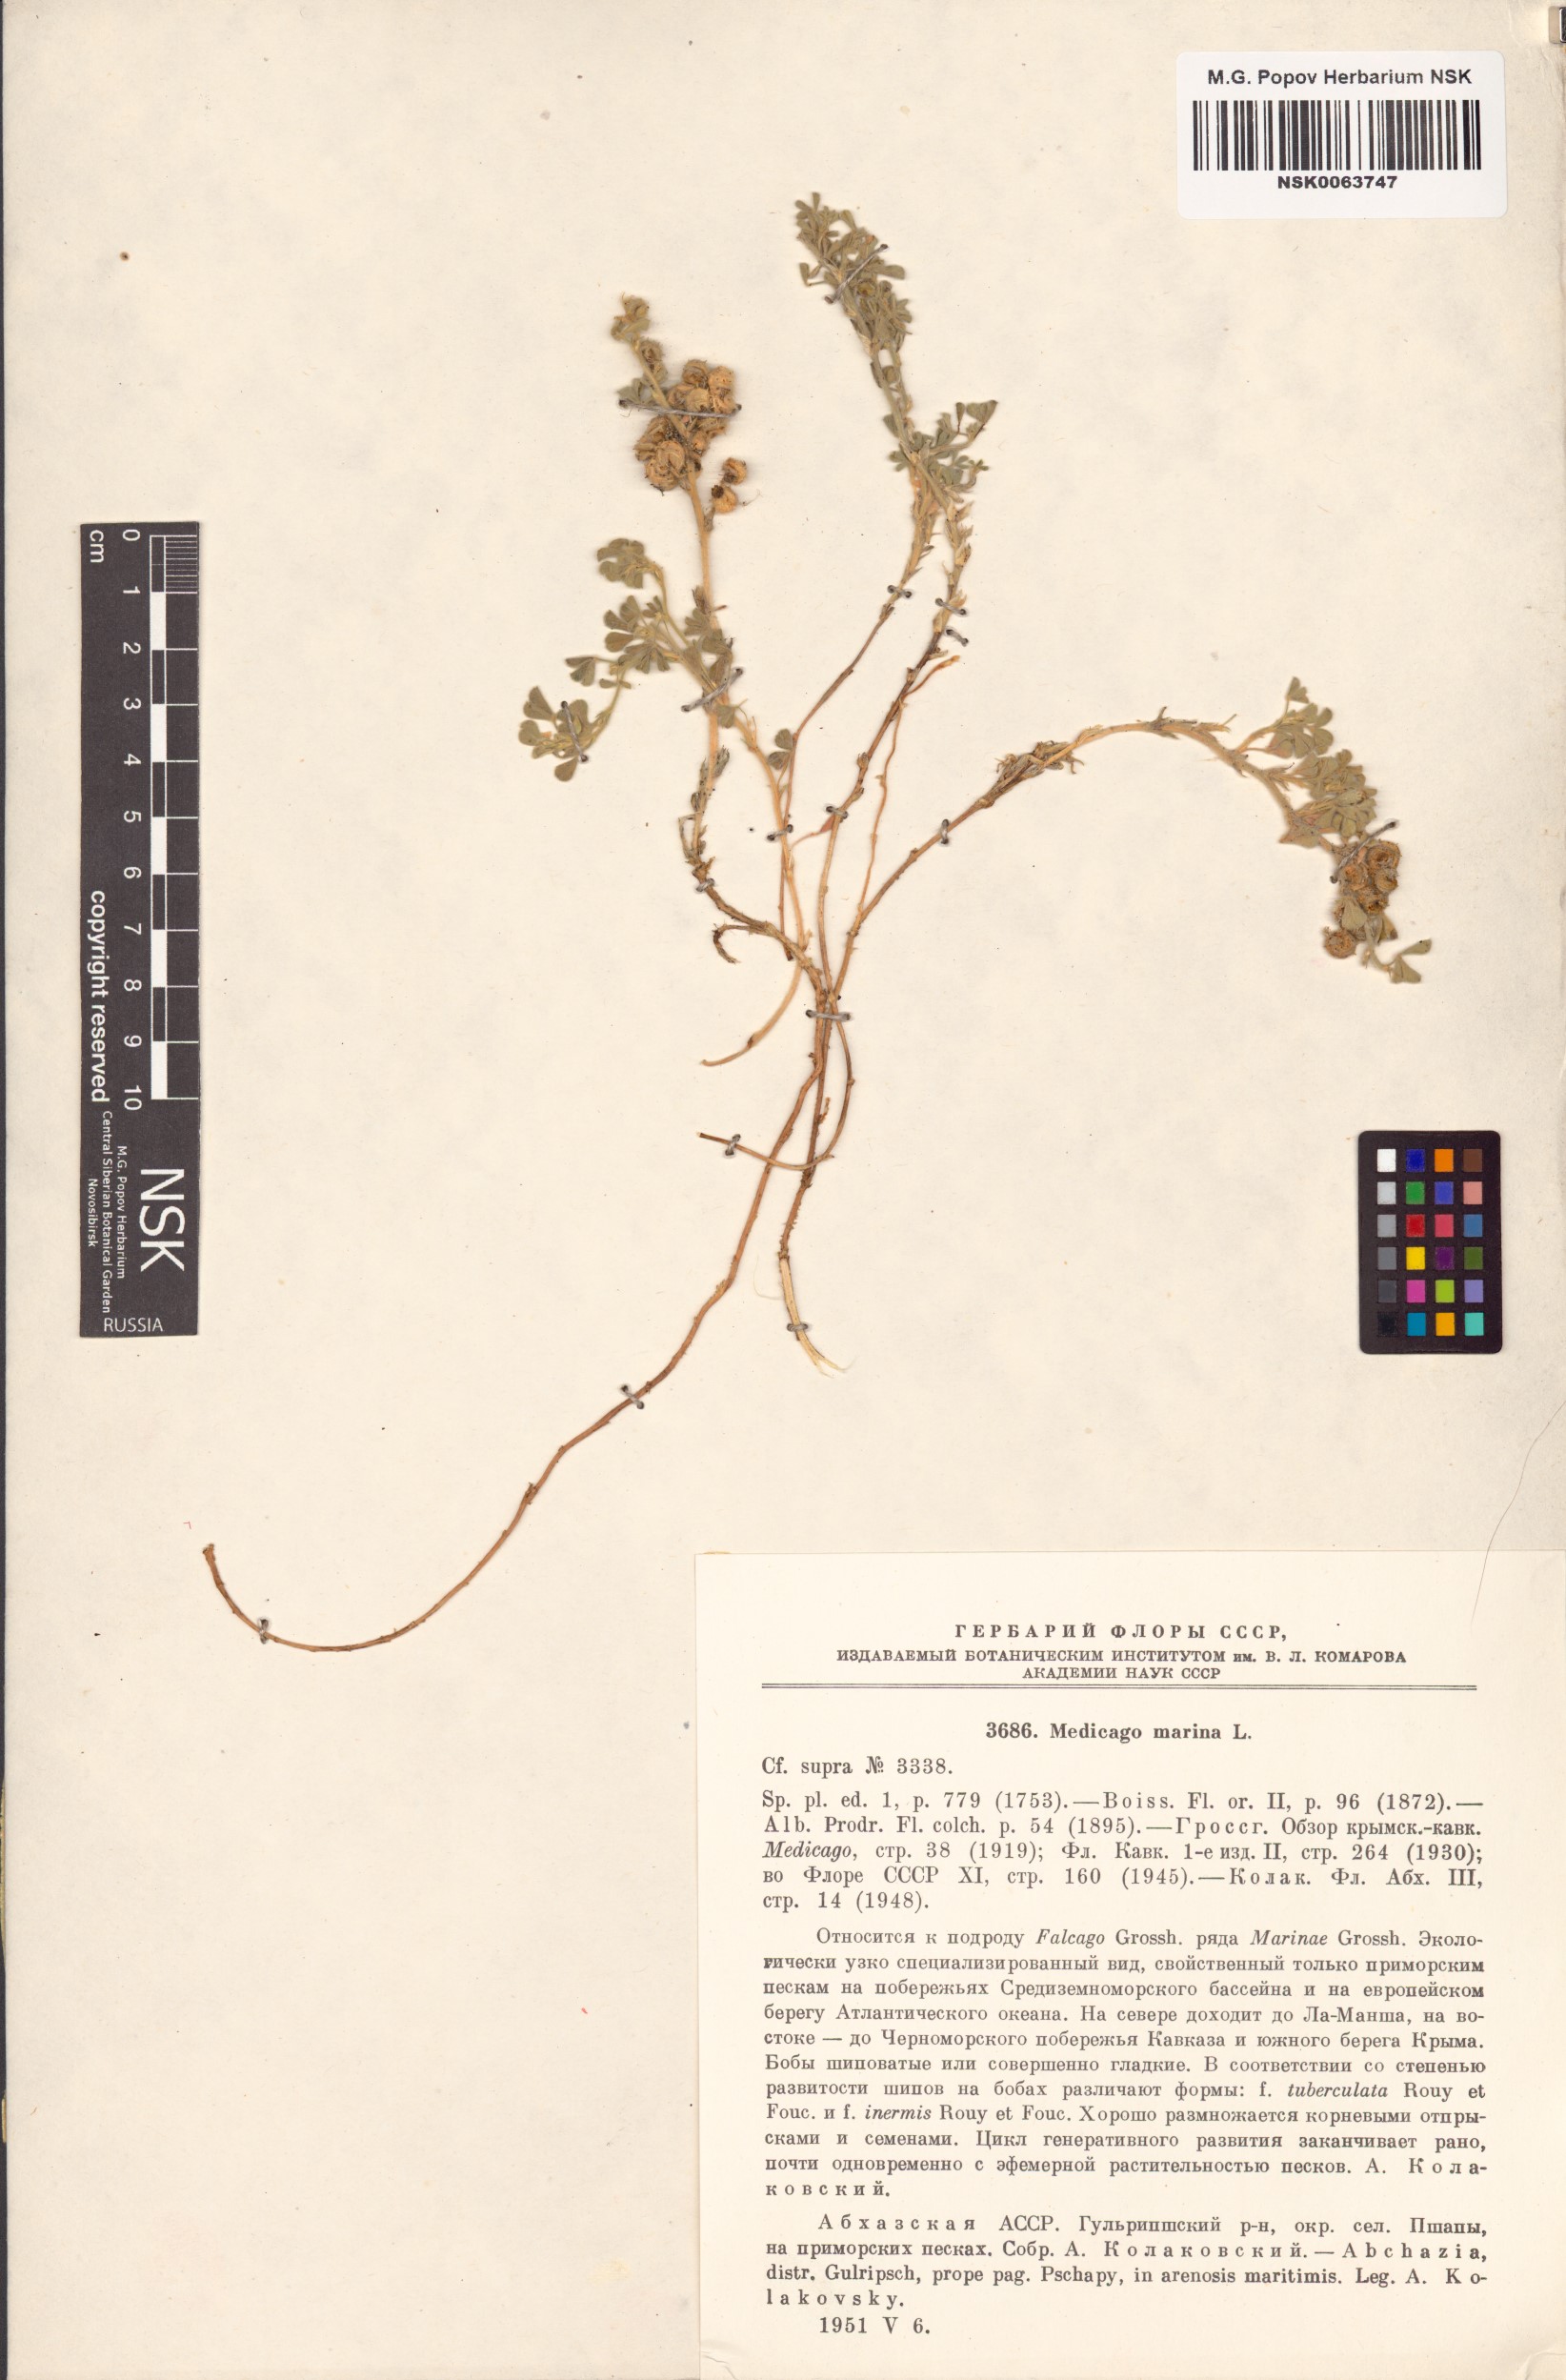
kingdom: Plantae
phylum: Tracheophyta
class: Magnoliopsida
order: Fabales
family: Fabaceae
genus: Medicago
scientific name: Medicago marina
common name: Sea medick
